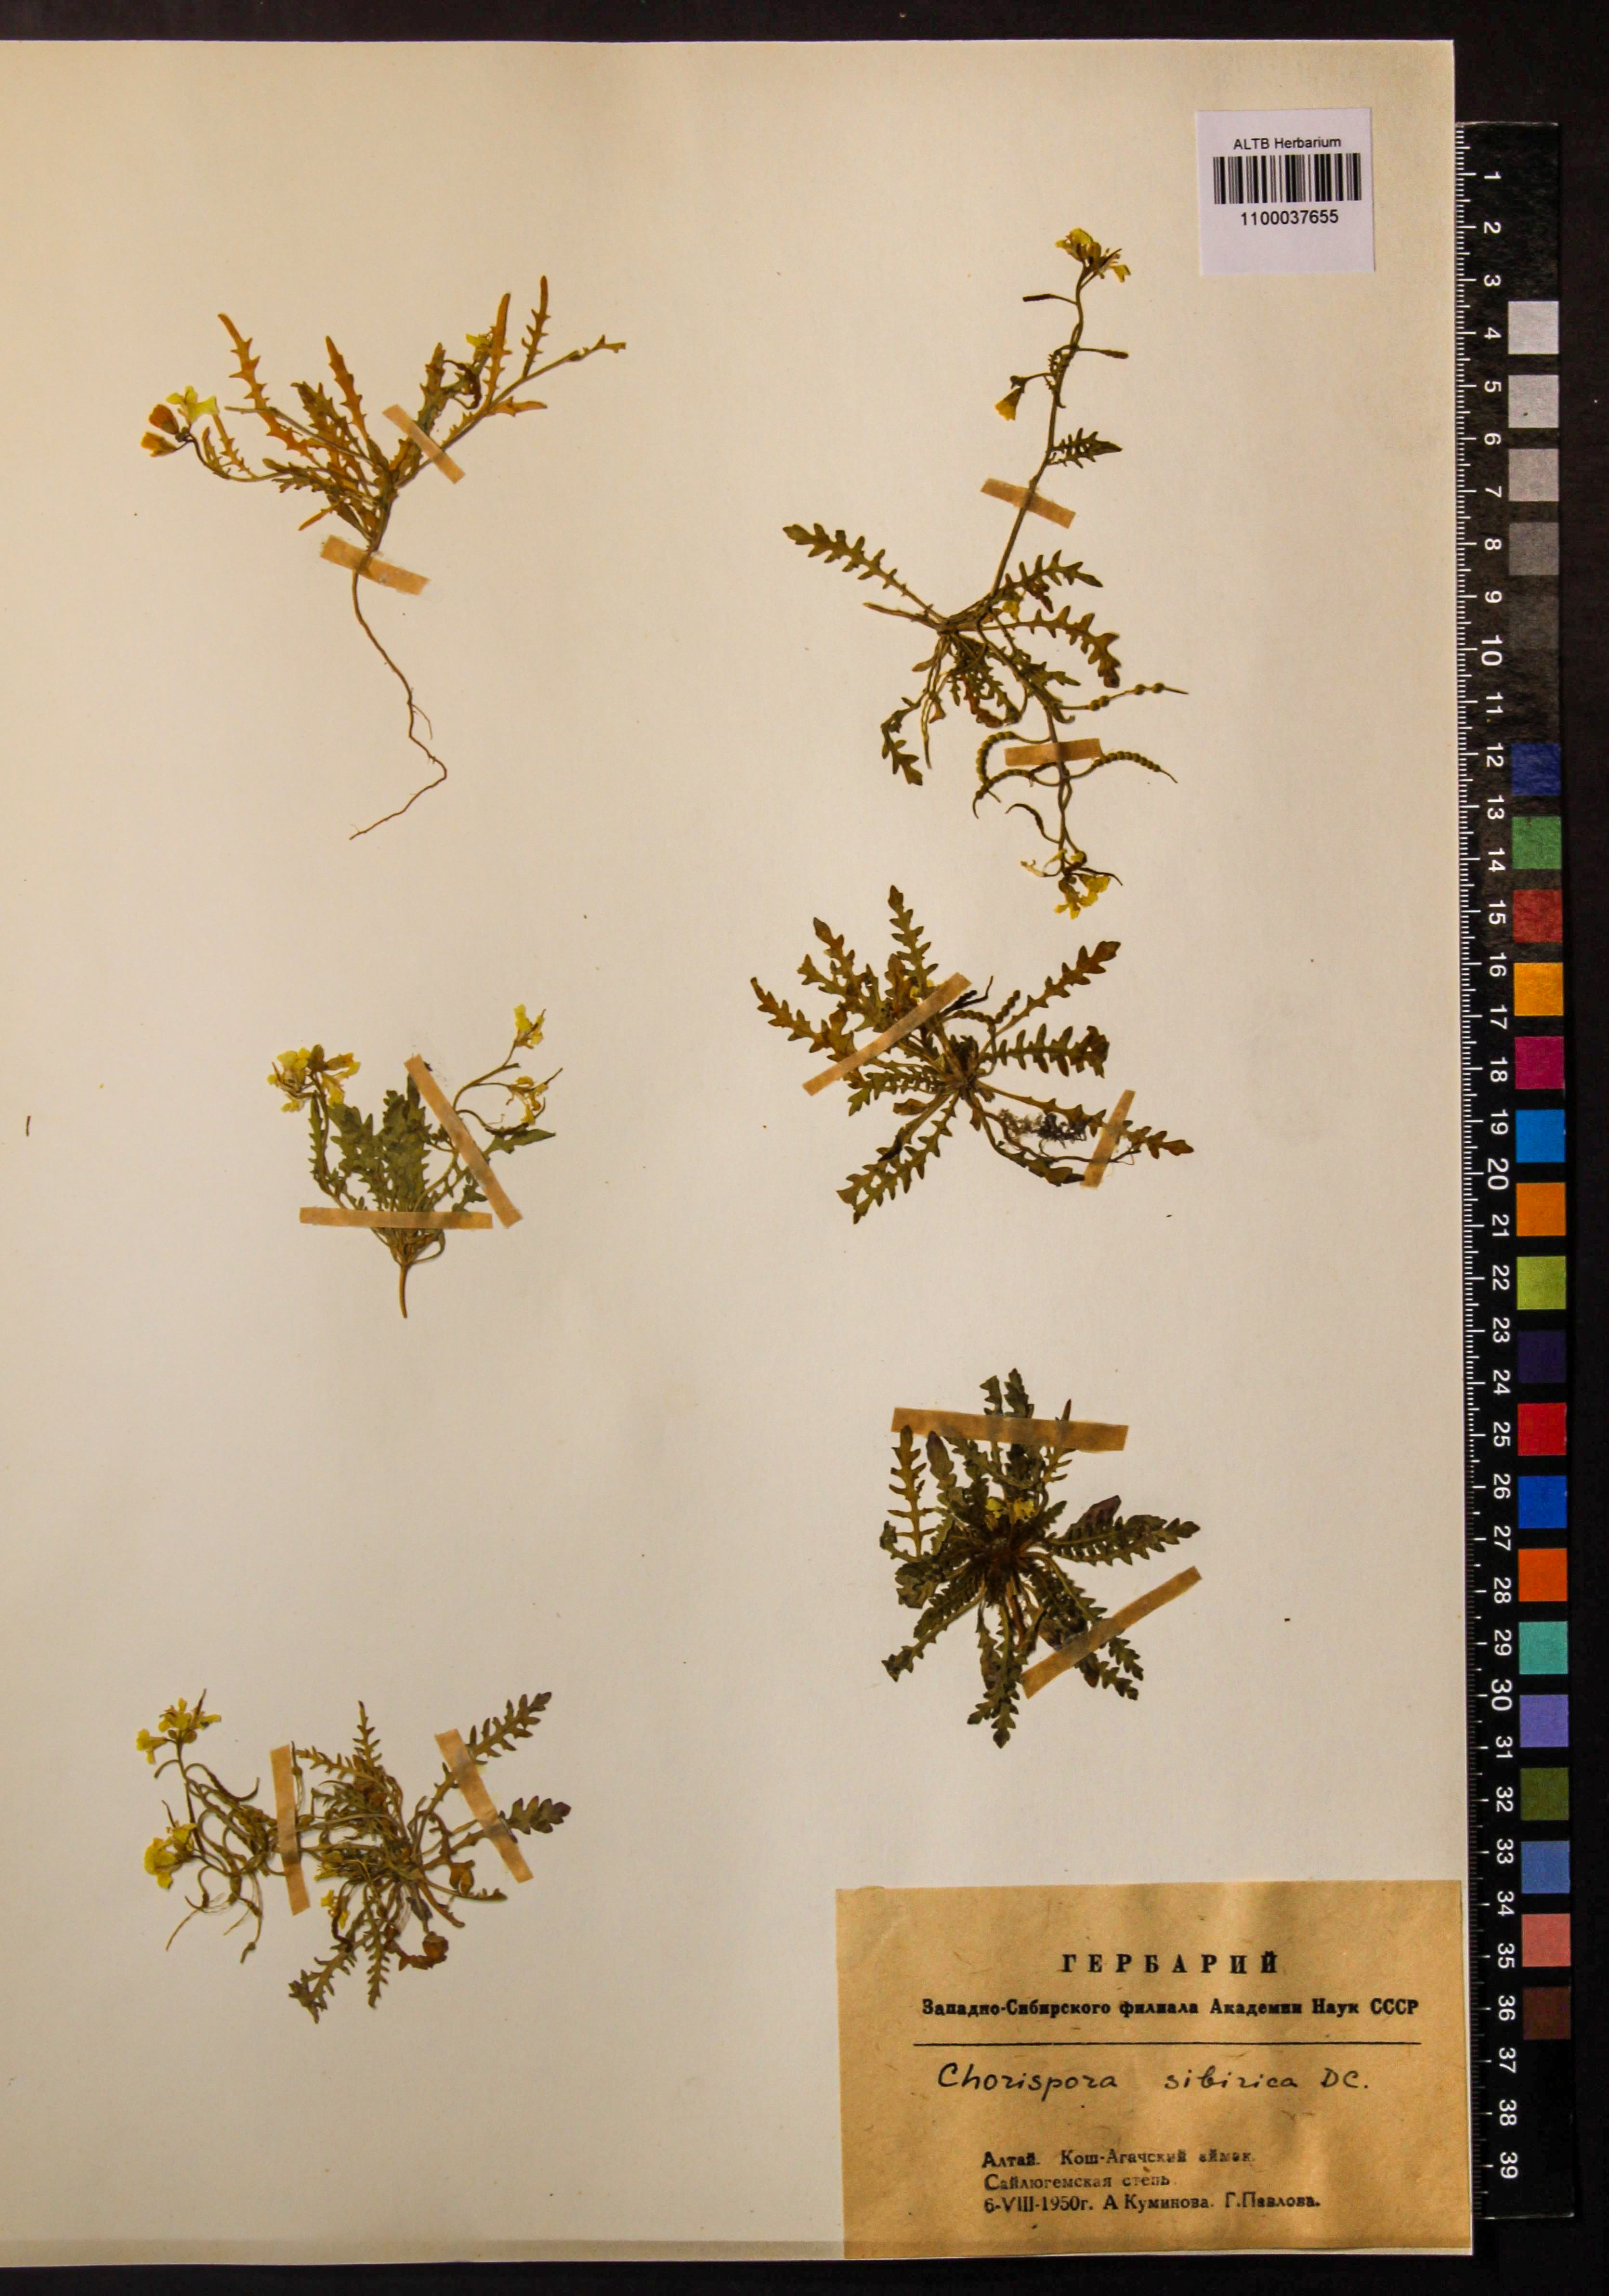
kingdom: Plantae
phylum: Tracheophyta
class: Magnoliopsida
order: Brassicales
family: Brassicaceae
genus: Chorispora
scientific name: Chorispora sibirica
